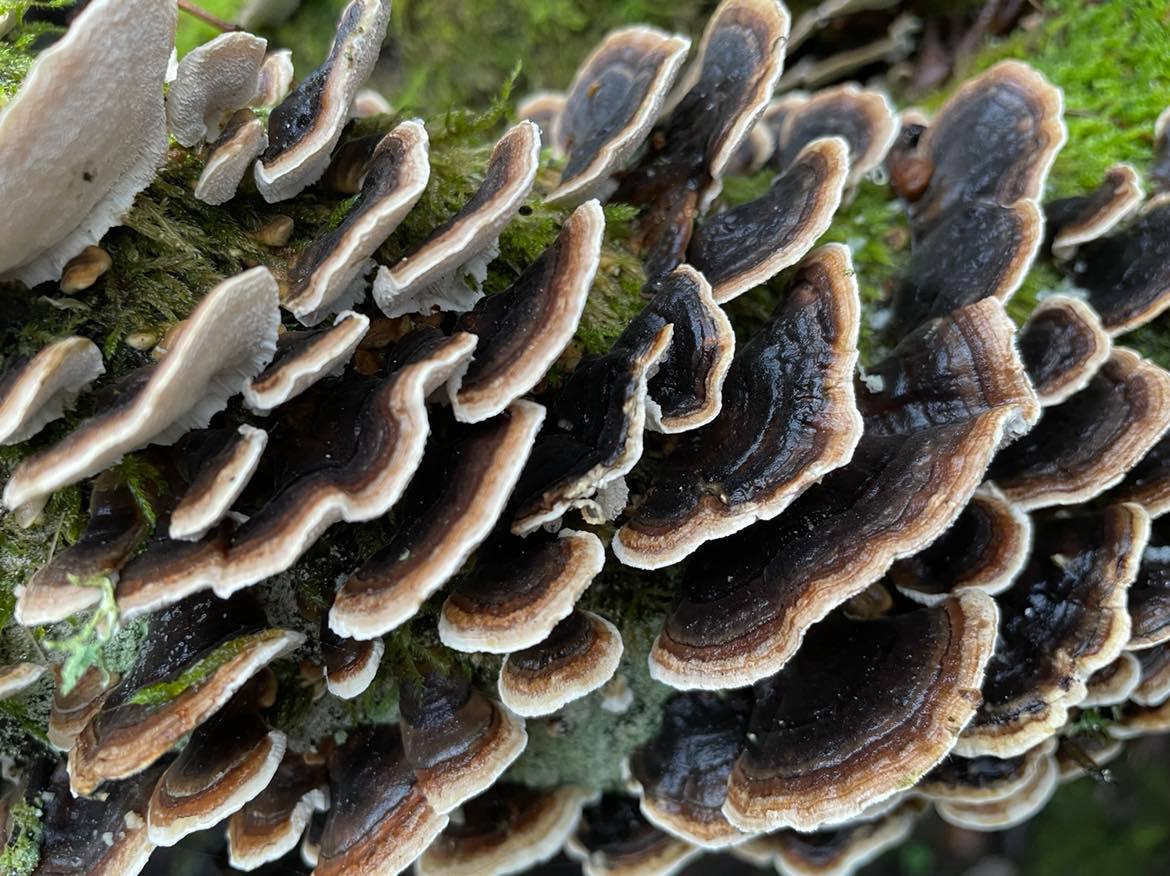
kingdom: Fungi
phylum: Basidiomycota
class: Agaricomycetes
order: Polyporales
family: Polyporaceae
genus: Trametes
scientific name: Trametes versicolor
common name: broget læderporesvamp
